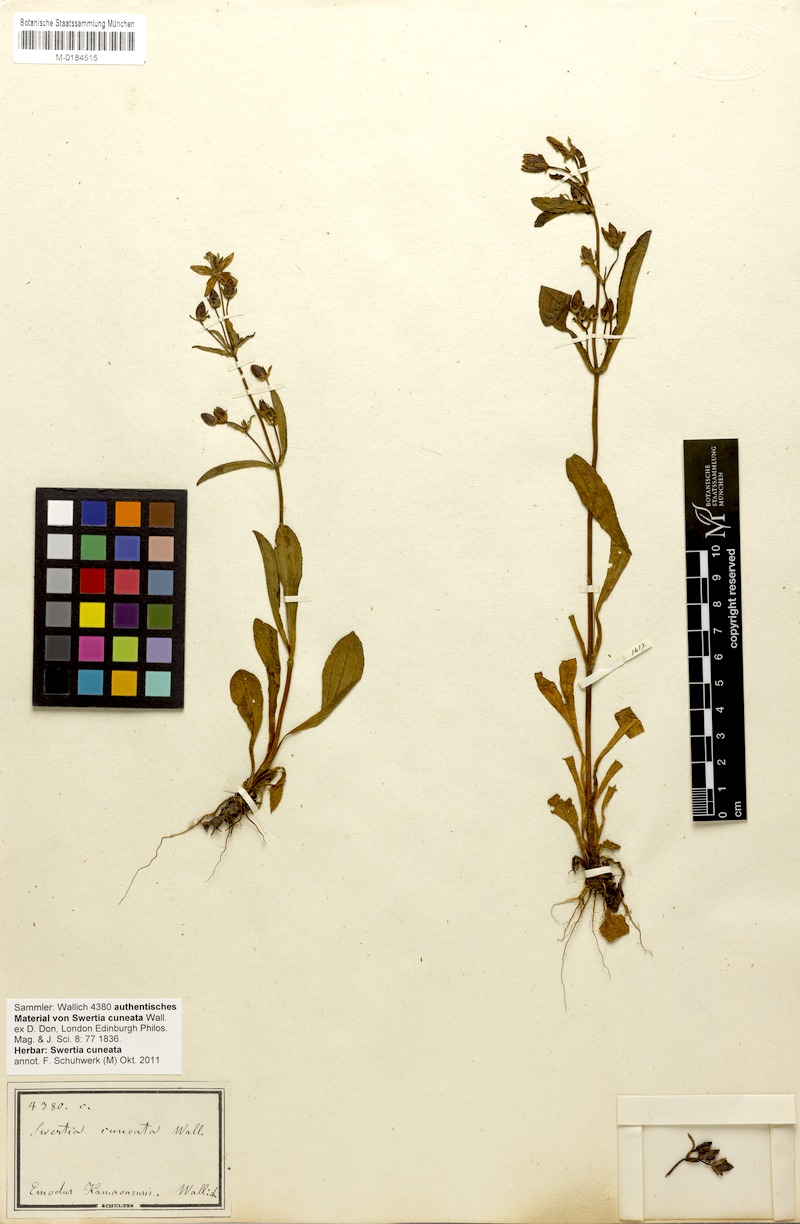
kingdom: Plantae
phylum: Tracheophyta
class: Magnoliopsida
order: Gentianales
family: Gentianaceae
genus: Swertia
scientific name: Swertia cuneata
